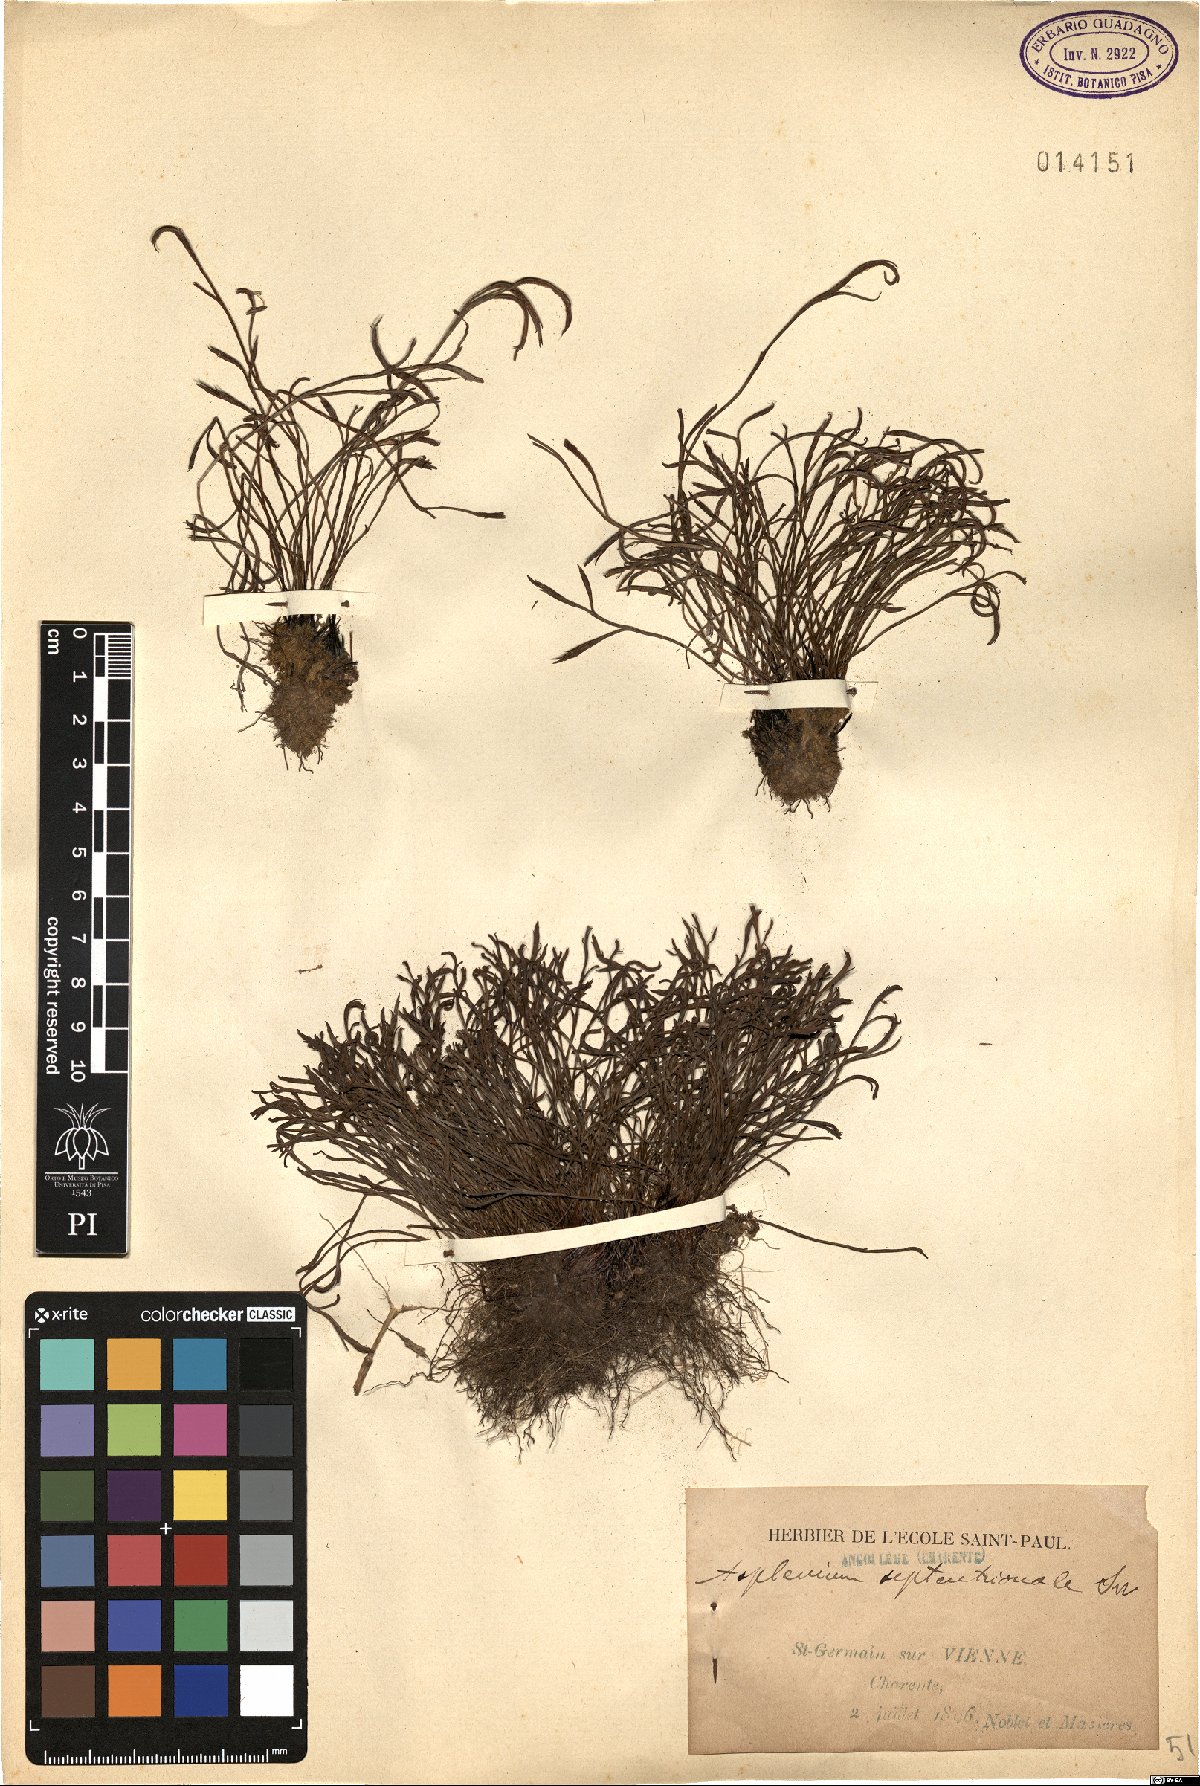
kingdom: Plantae
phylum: Tracheophyta
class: Polypodiopsida
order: Polypodiales
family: Aspleniaceae
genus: Asplenium
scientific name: Asplenium septentrionale
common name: Forked spleenwort
